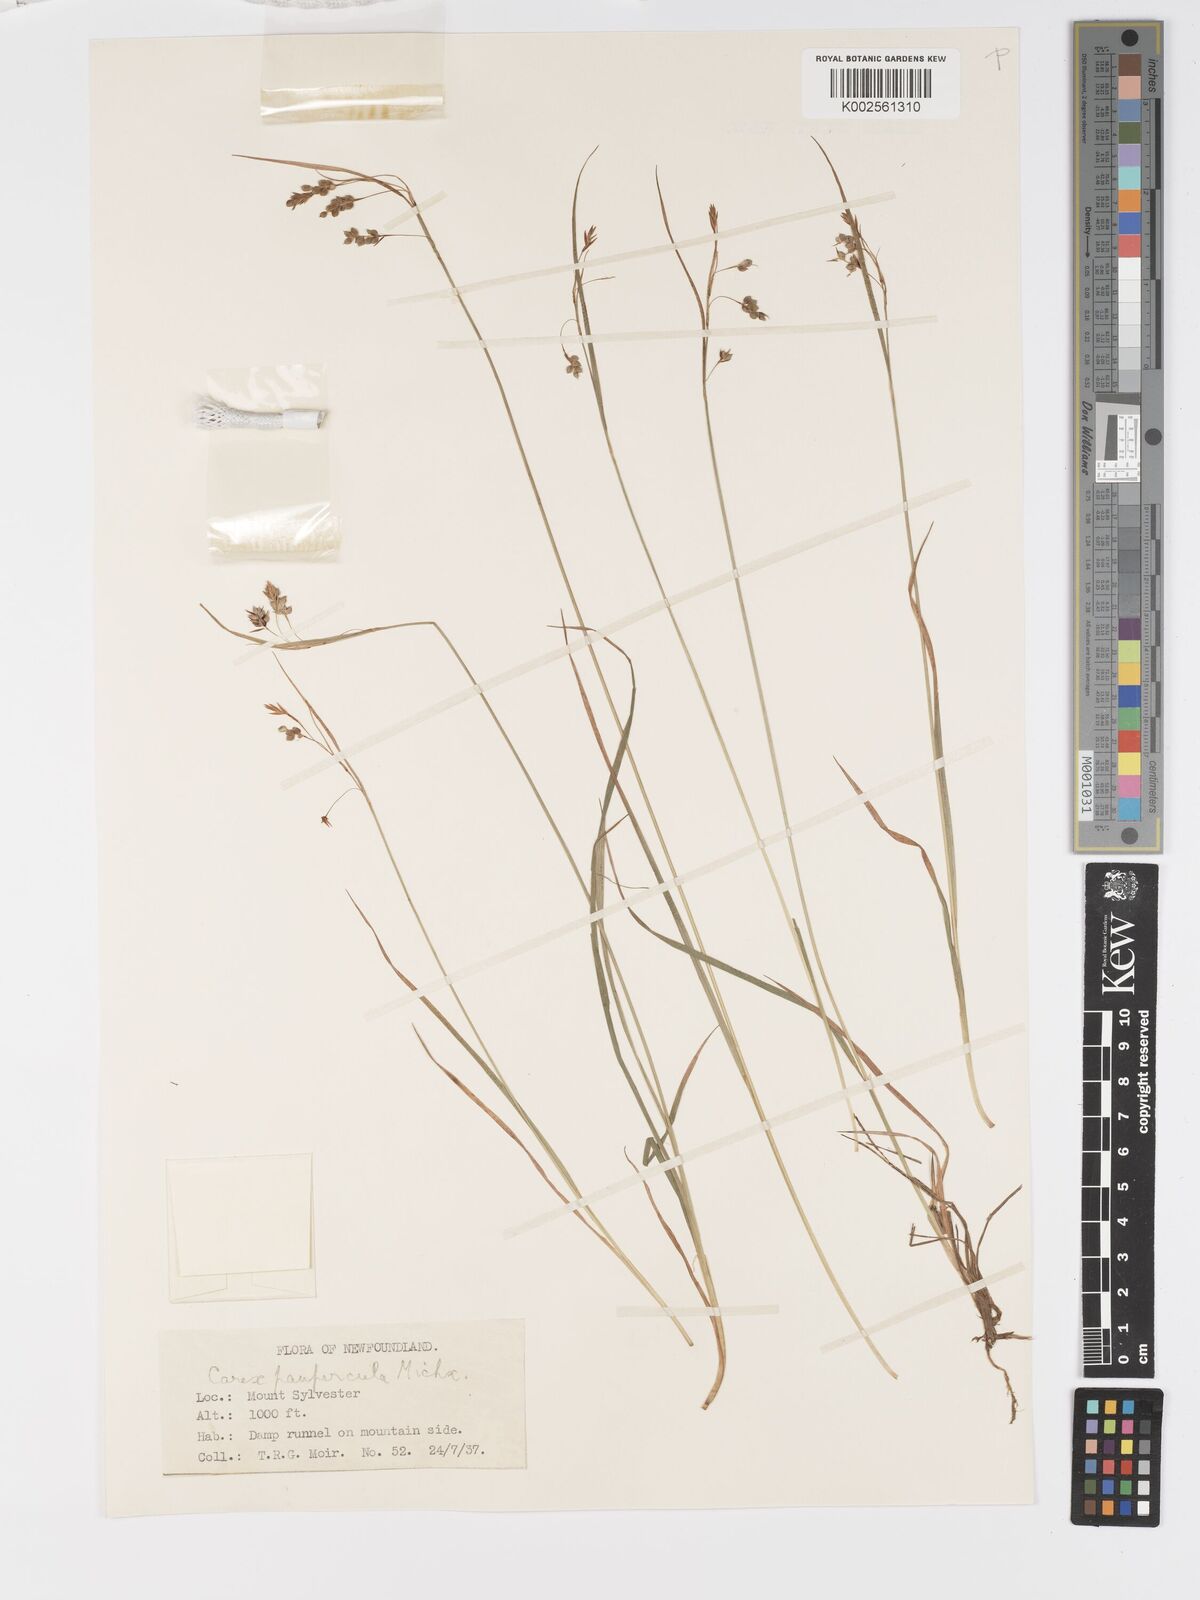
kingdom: Plantae
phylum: Tracheophyta
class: Liliopsida
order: Poales
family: Cyperaceae
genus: Carex
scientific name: Carex magellanica
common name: Bog sedge
